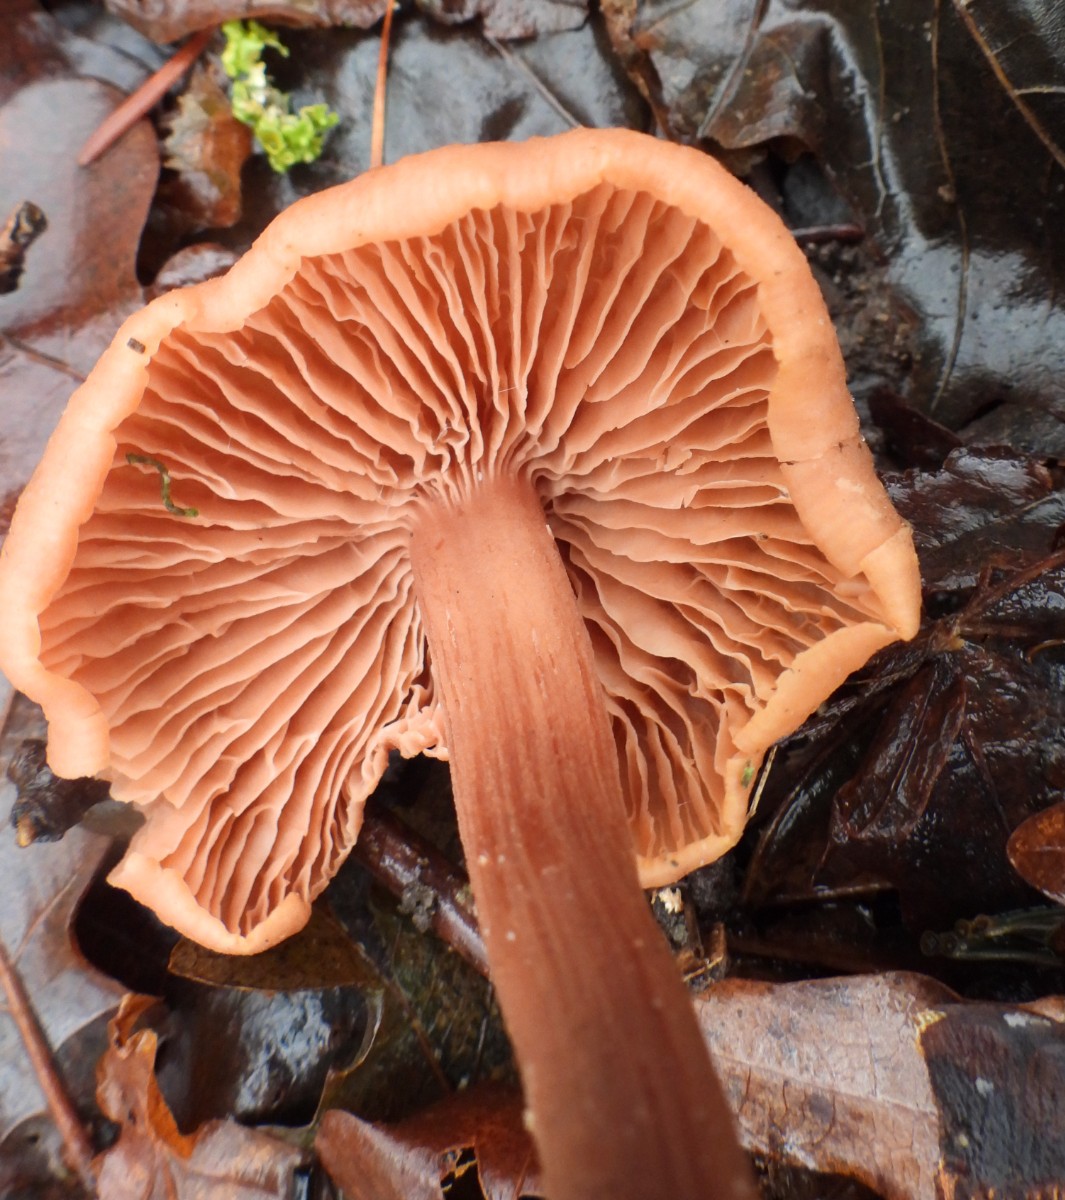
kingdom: Fungi
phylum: Basidiomycota
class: Agaricomycetes
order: Agaricales
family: Hydnangiaceae
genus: Laccaria
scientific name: Laccaria laccata
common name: rød ametysthat
